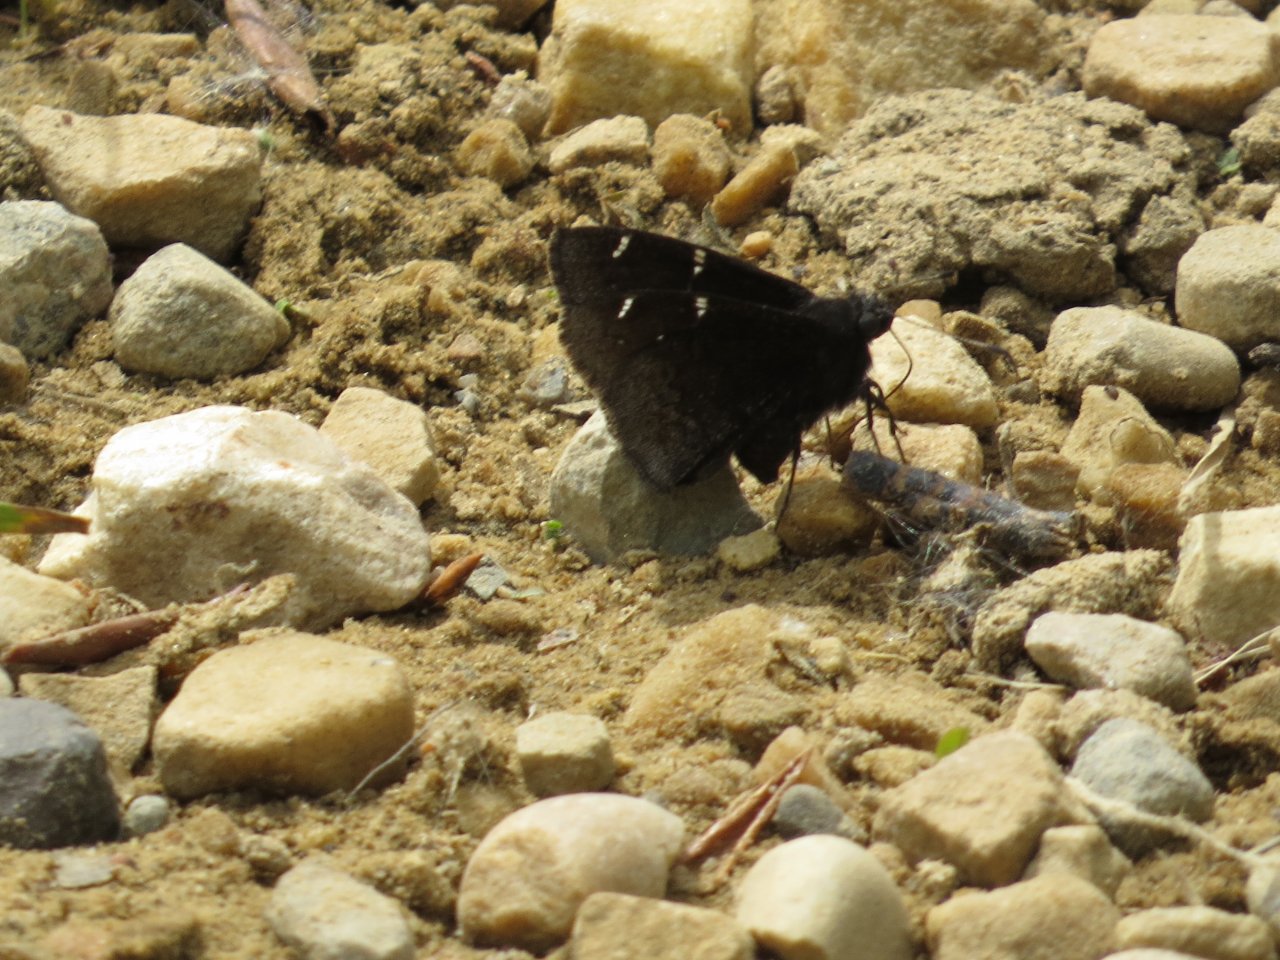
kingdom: Animalia
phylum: Arthropoda
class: Insecta
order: Lepidoptera
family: Hesperiidae
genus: Autochton
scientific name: Autochton
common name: Northern Cloudywing
